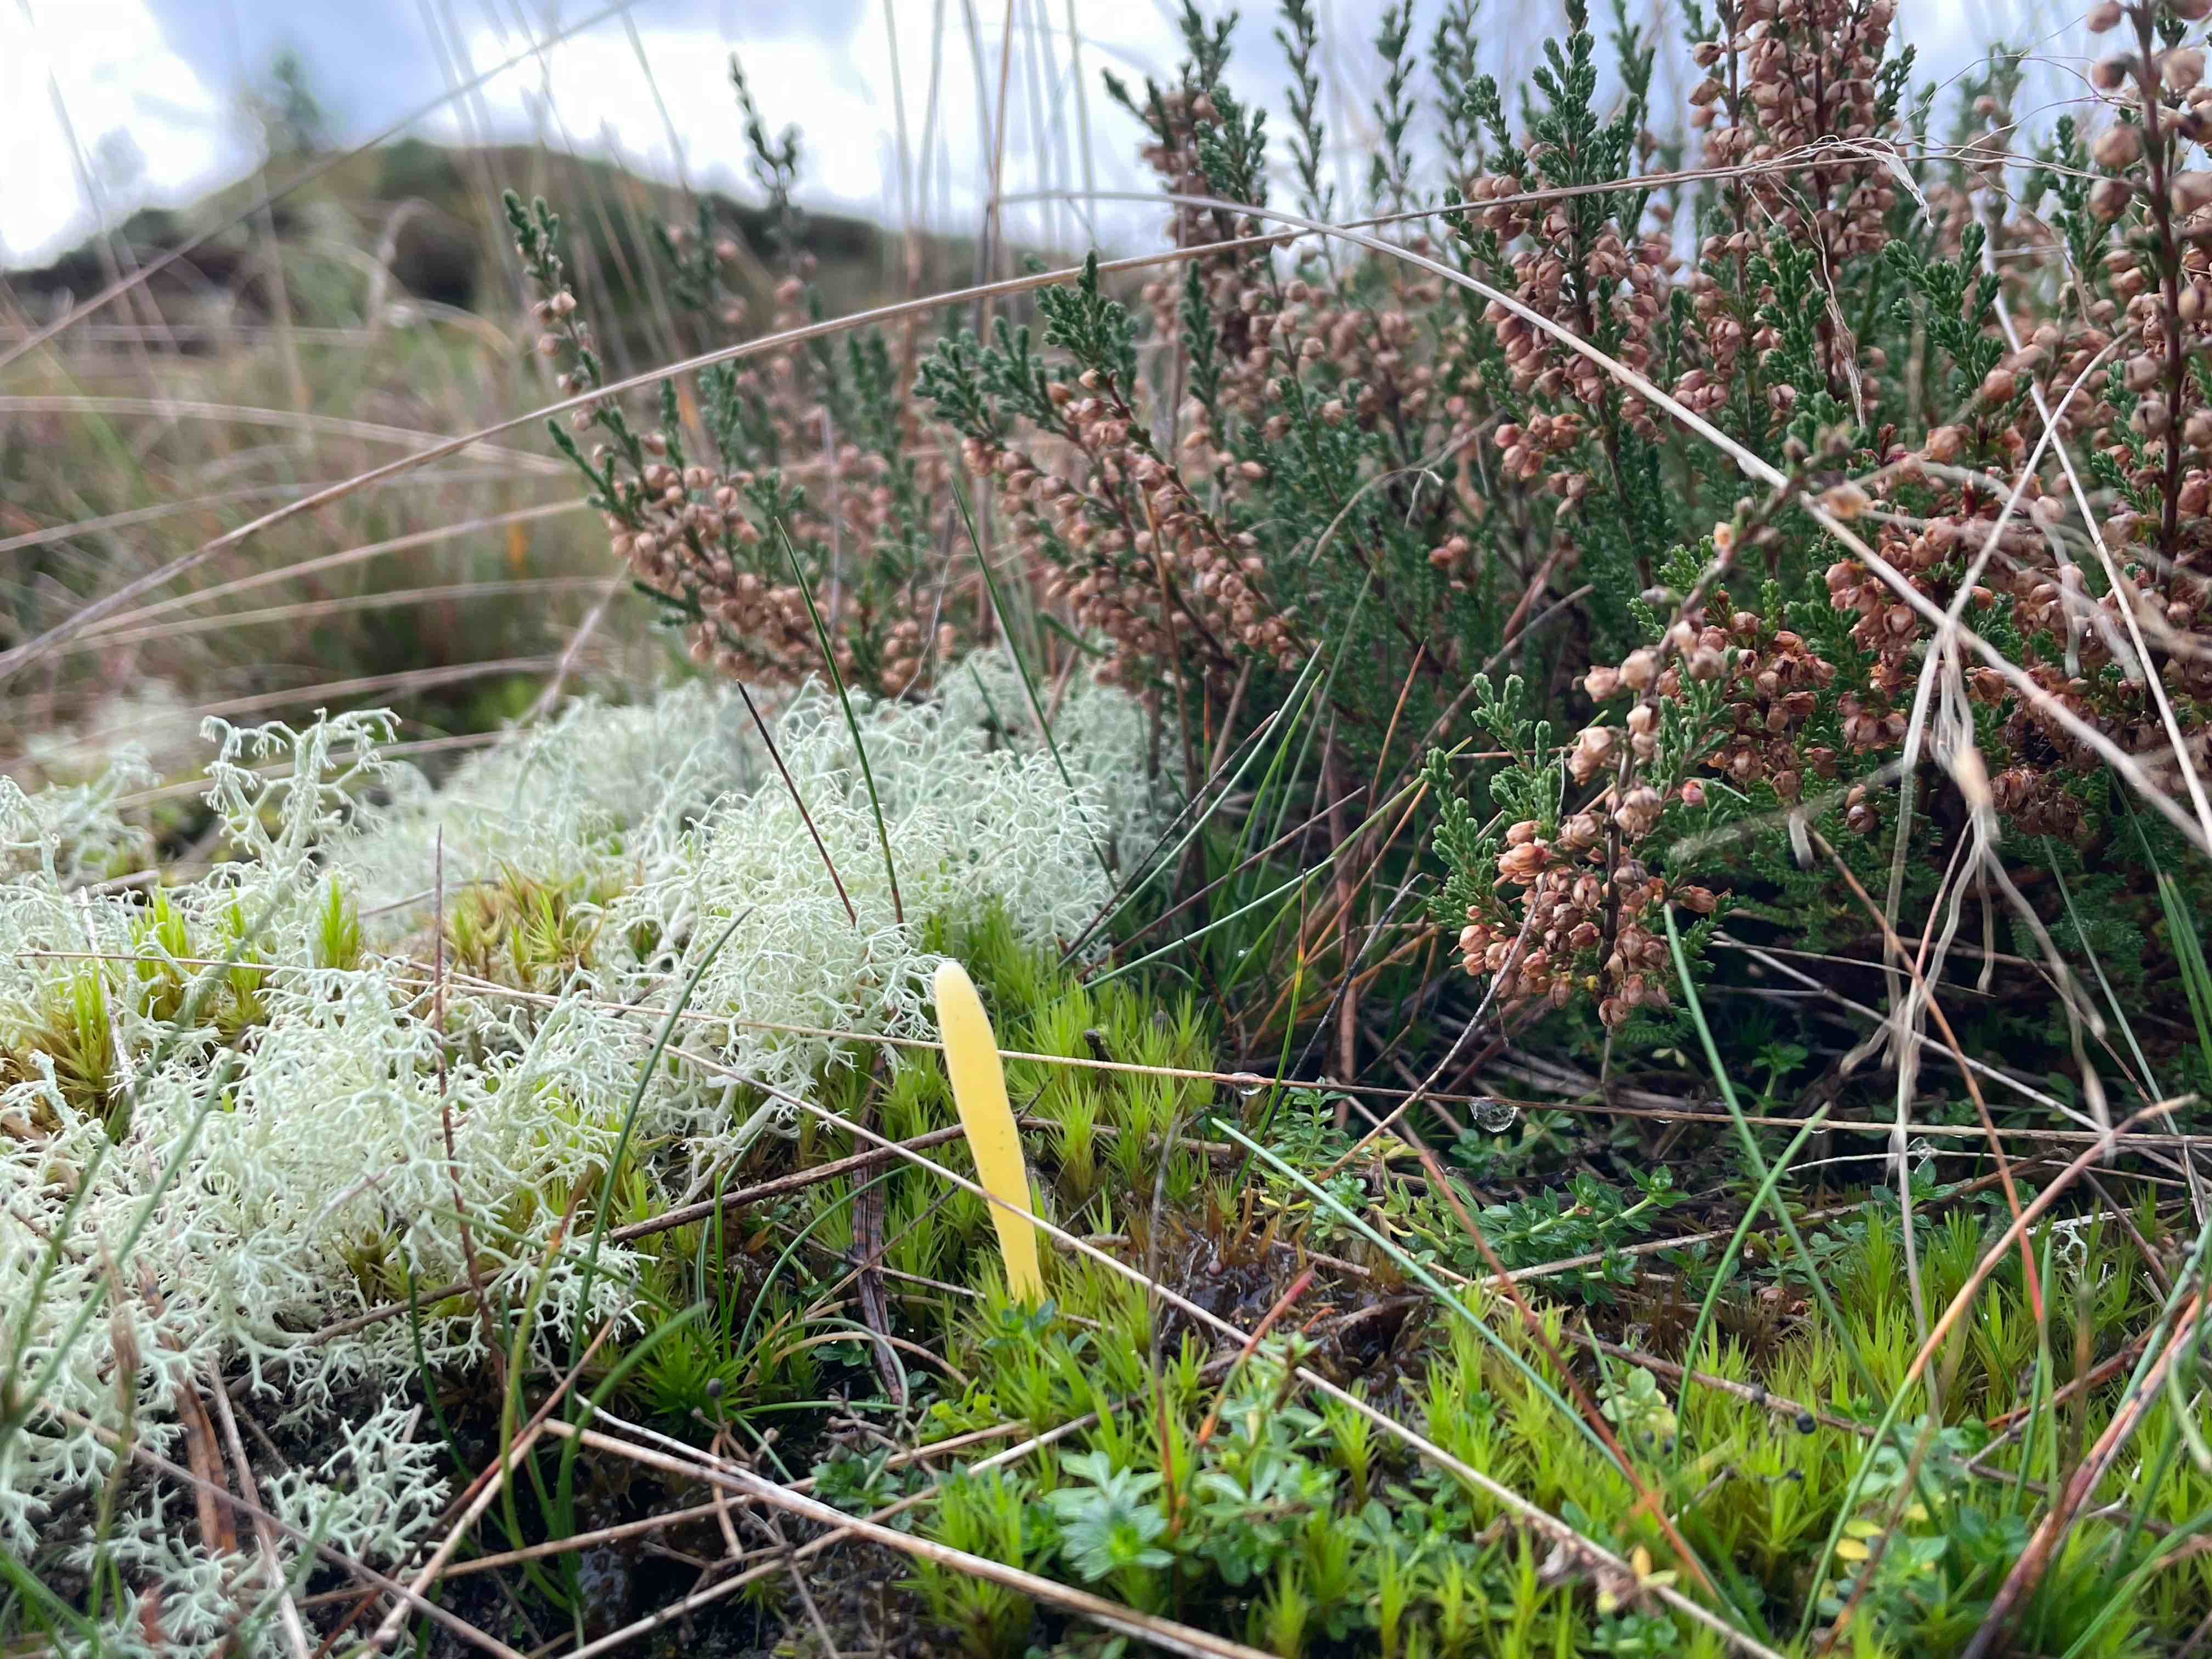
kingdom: Fungi
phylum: Basidiomycota
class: Agaricomycetes
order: Agaricales
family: Clavariaceae
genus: Clavaria
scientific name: Clavaria argillacea
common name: lerfarvet køllesvamp
